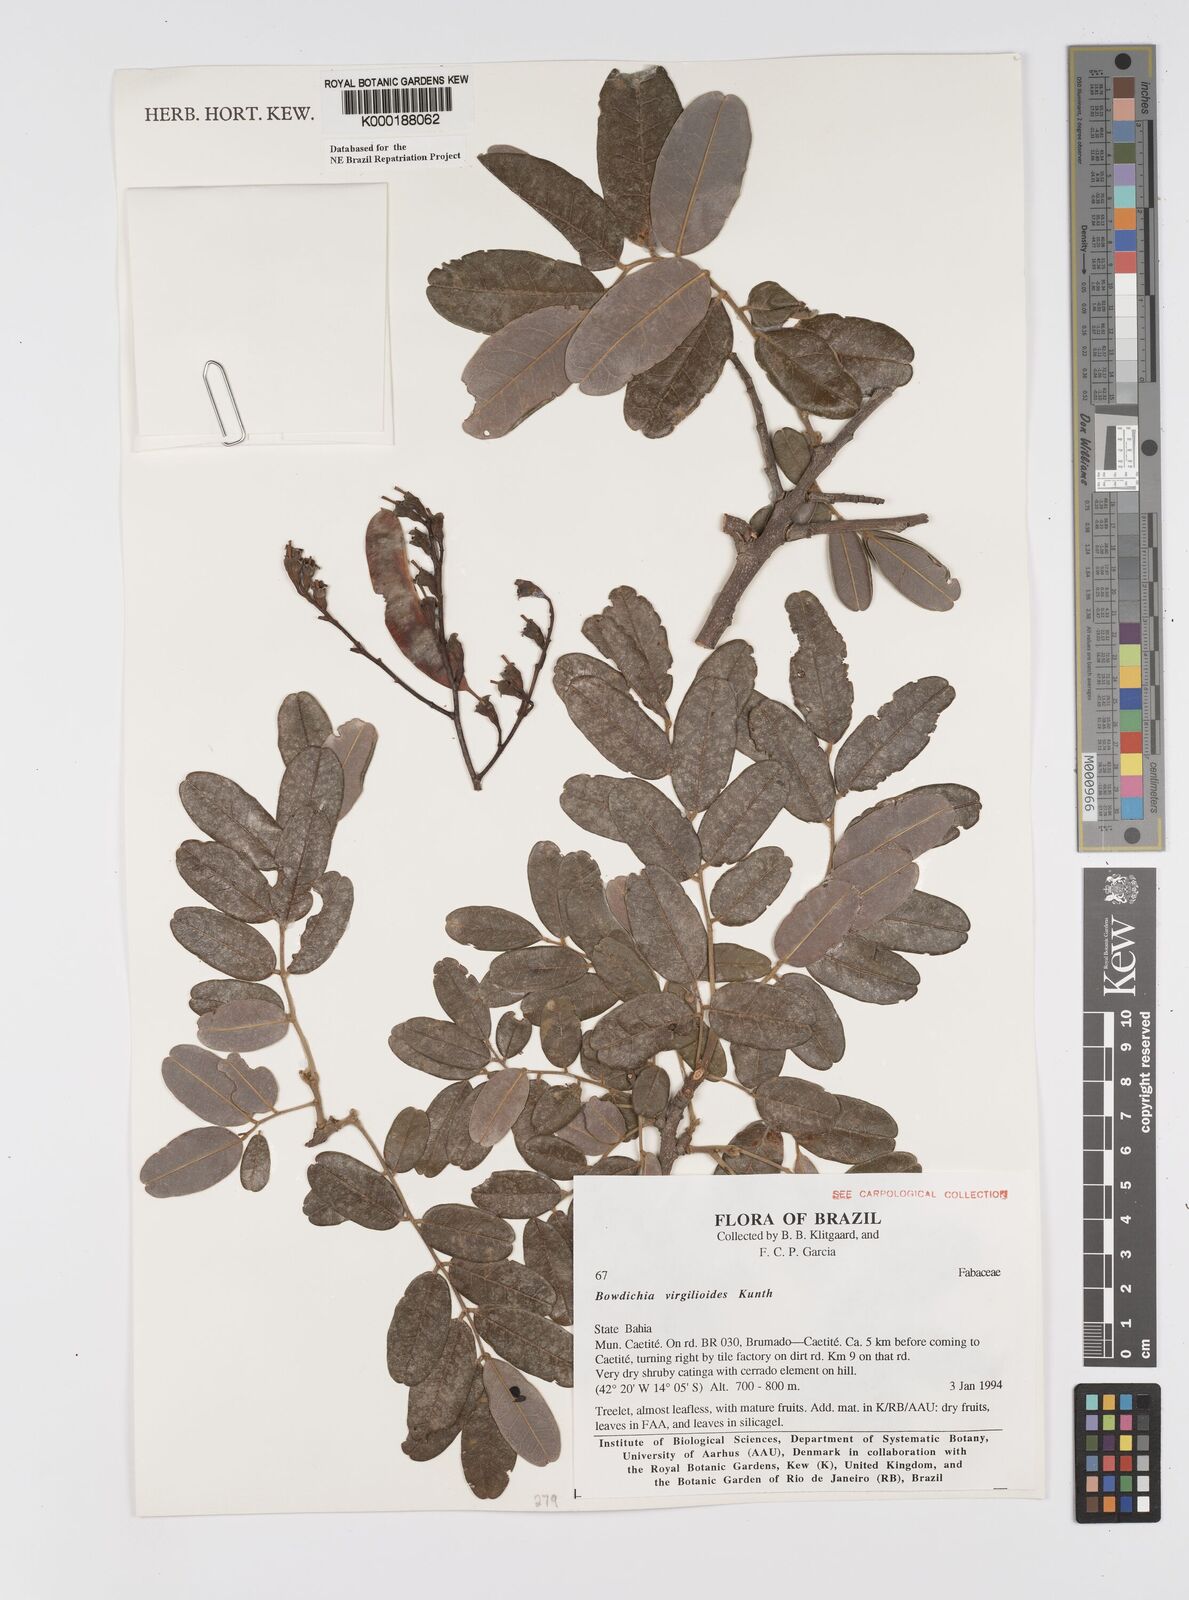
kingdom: Plantae
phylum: Tracheophyta
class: Magnoliopsida
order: Fabales
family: Fabaceae
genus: Bowdichia
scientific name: Bowdichia virgilioides
